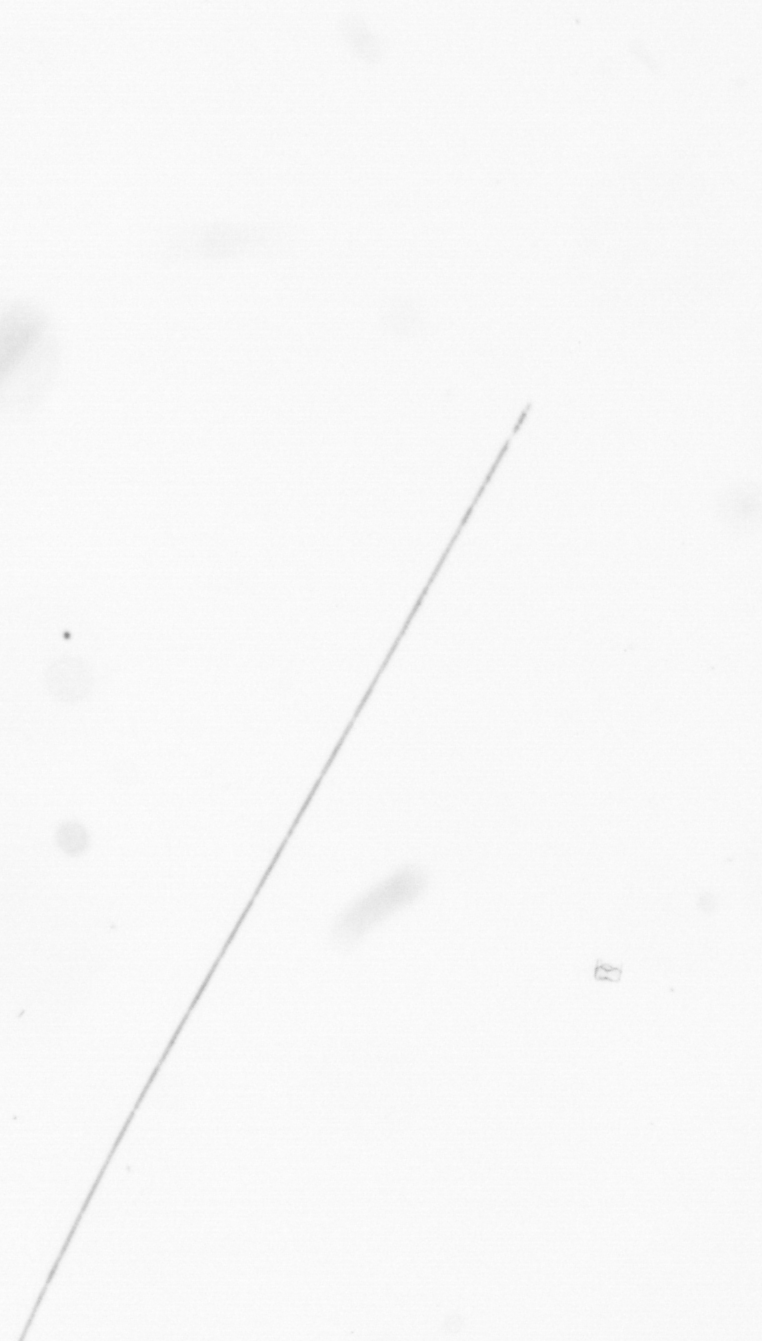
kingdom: Chromista
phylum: Ochrophyta
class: Bacillariophyceae
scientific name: Bacillariophyceae
